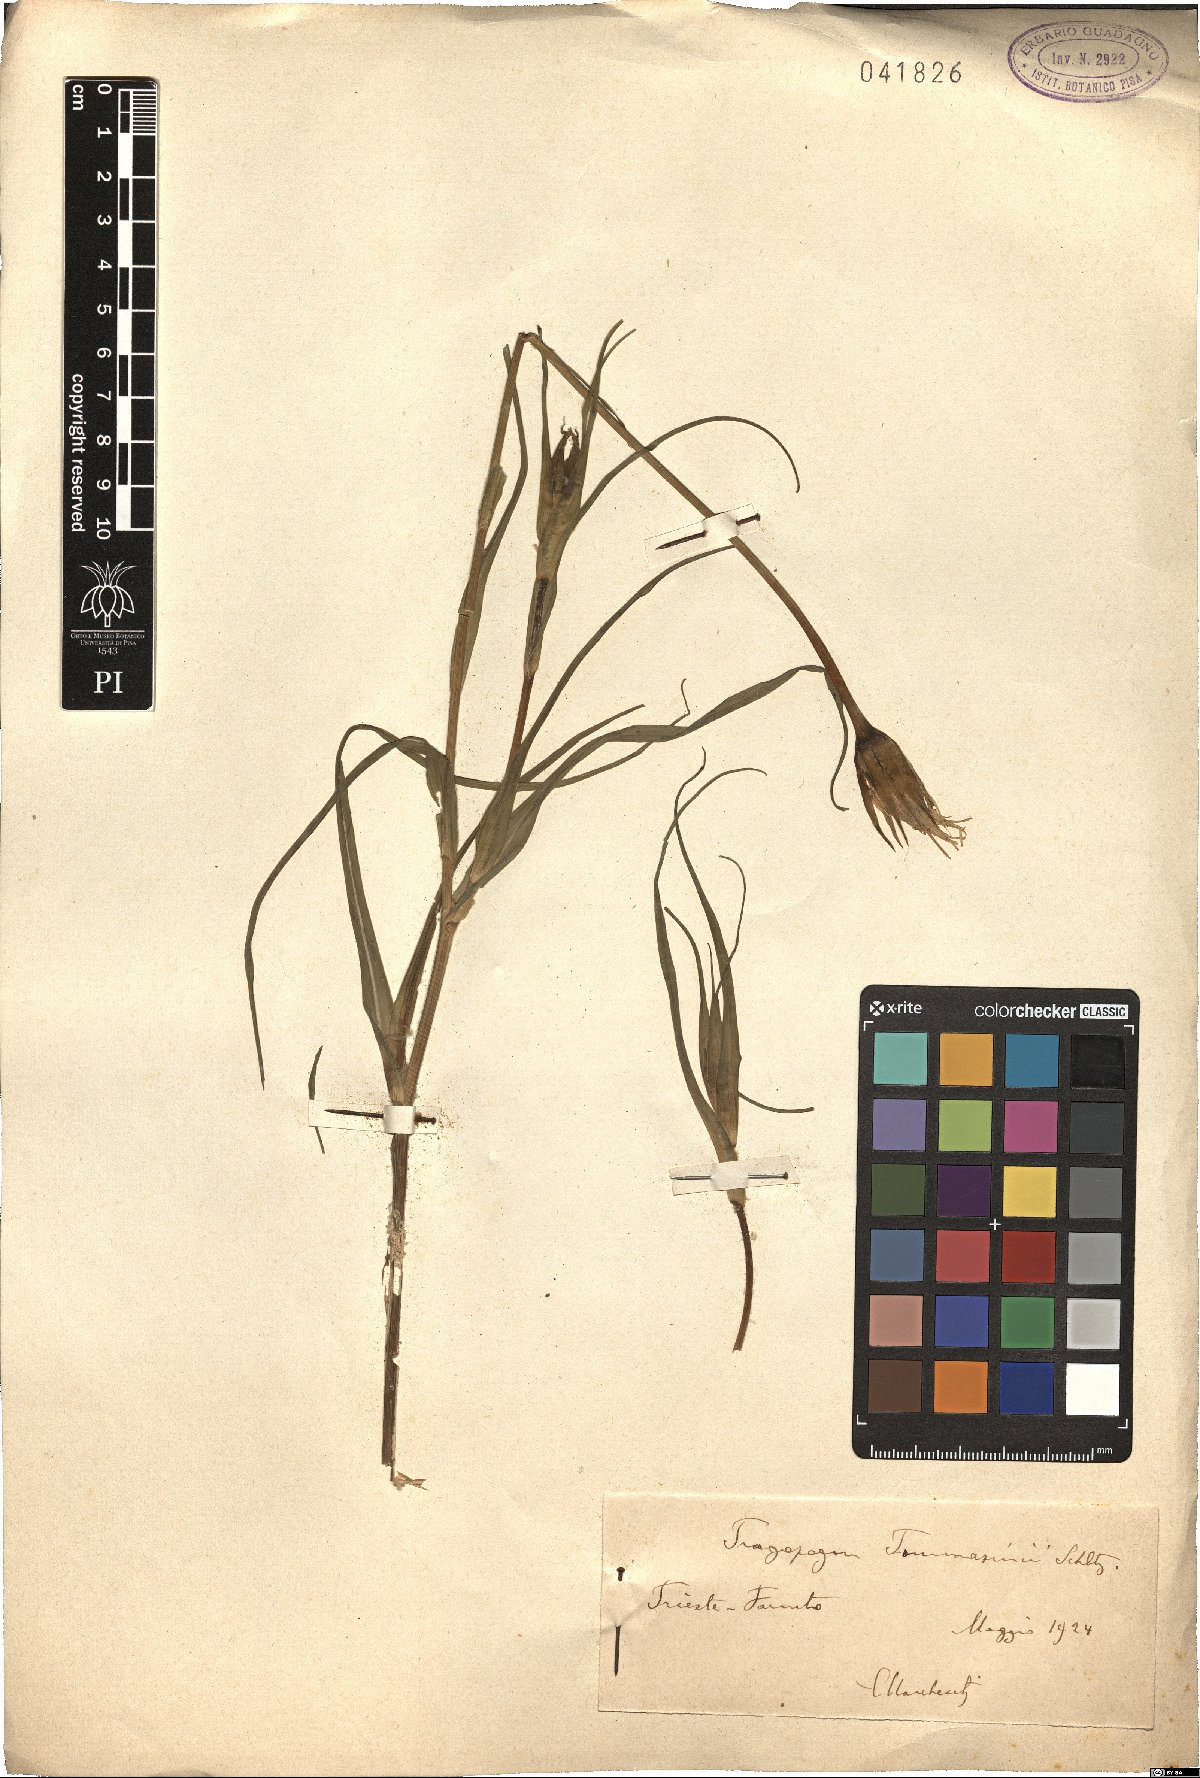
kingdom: Plantae
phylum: Tracheophyta
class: Magnoliopsida
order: Asterales
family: Asteraceae
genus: Tragopogon
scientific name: Tragopogon tommasinii
